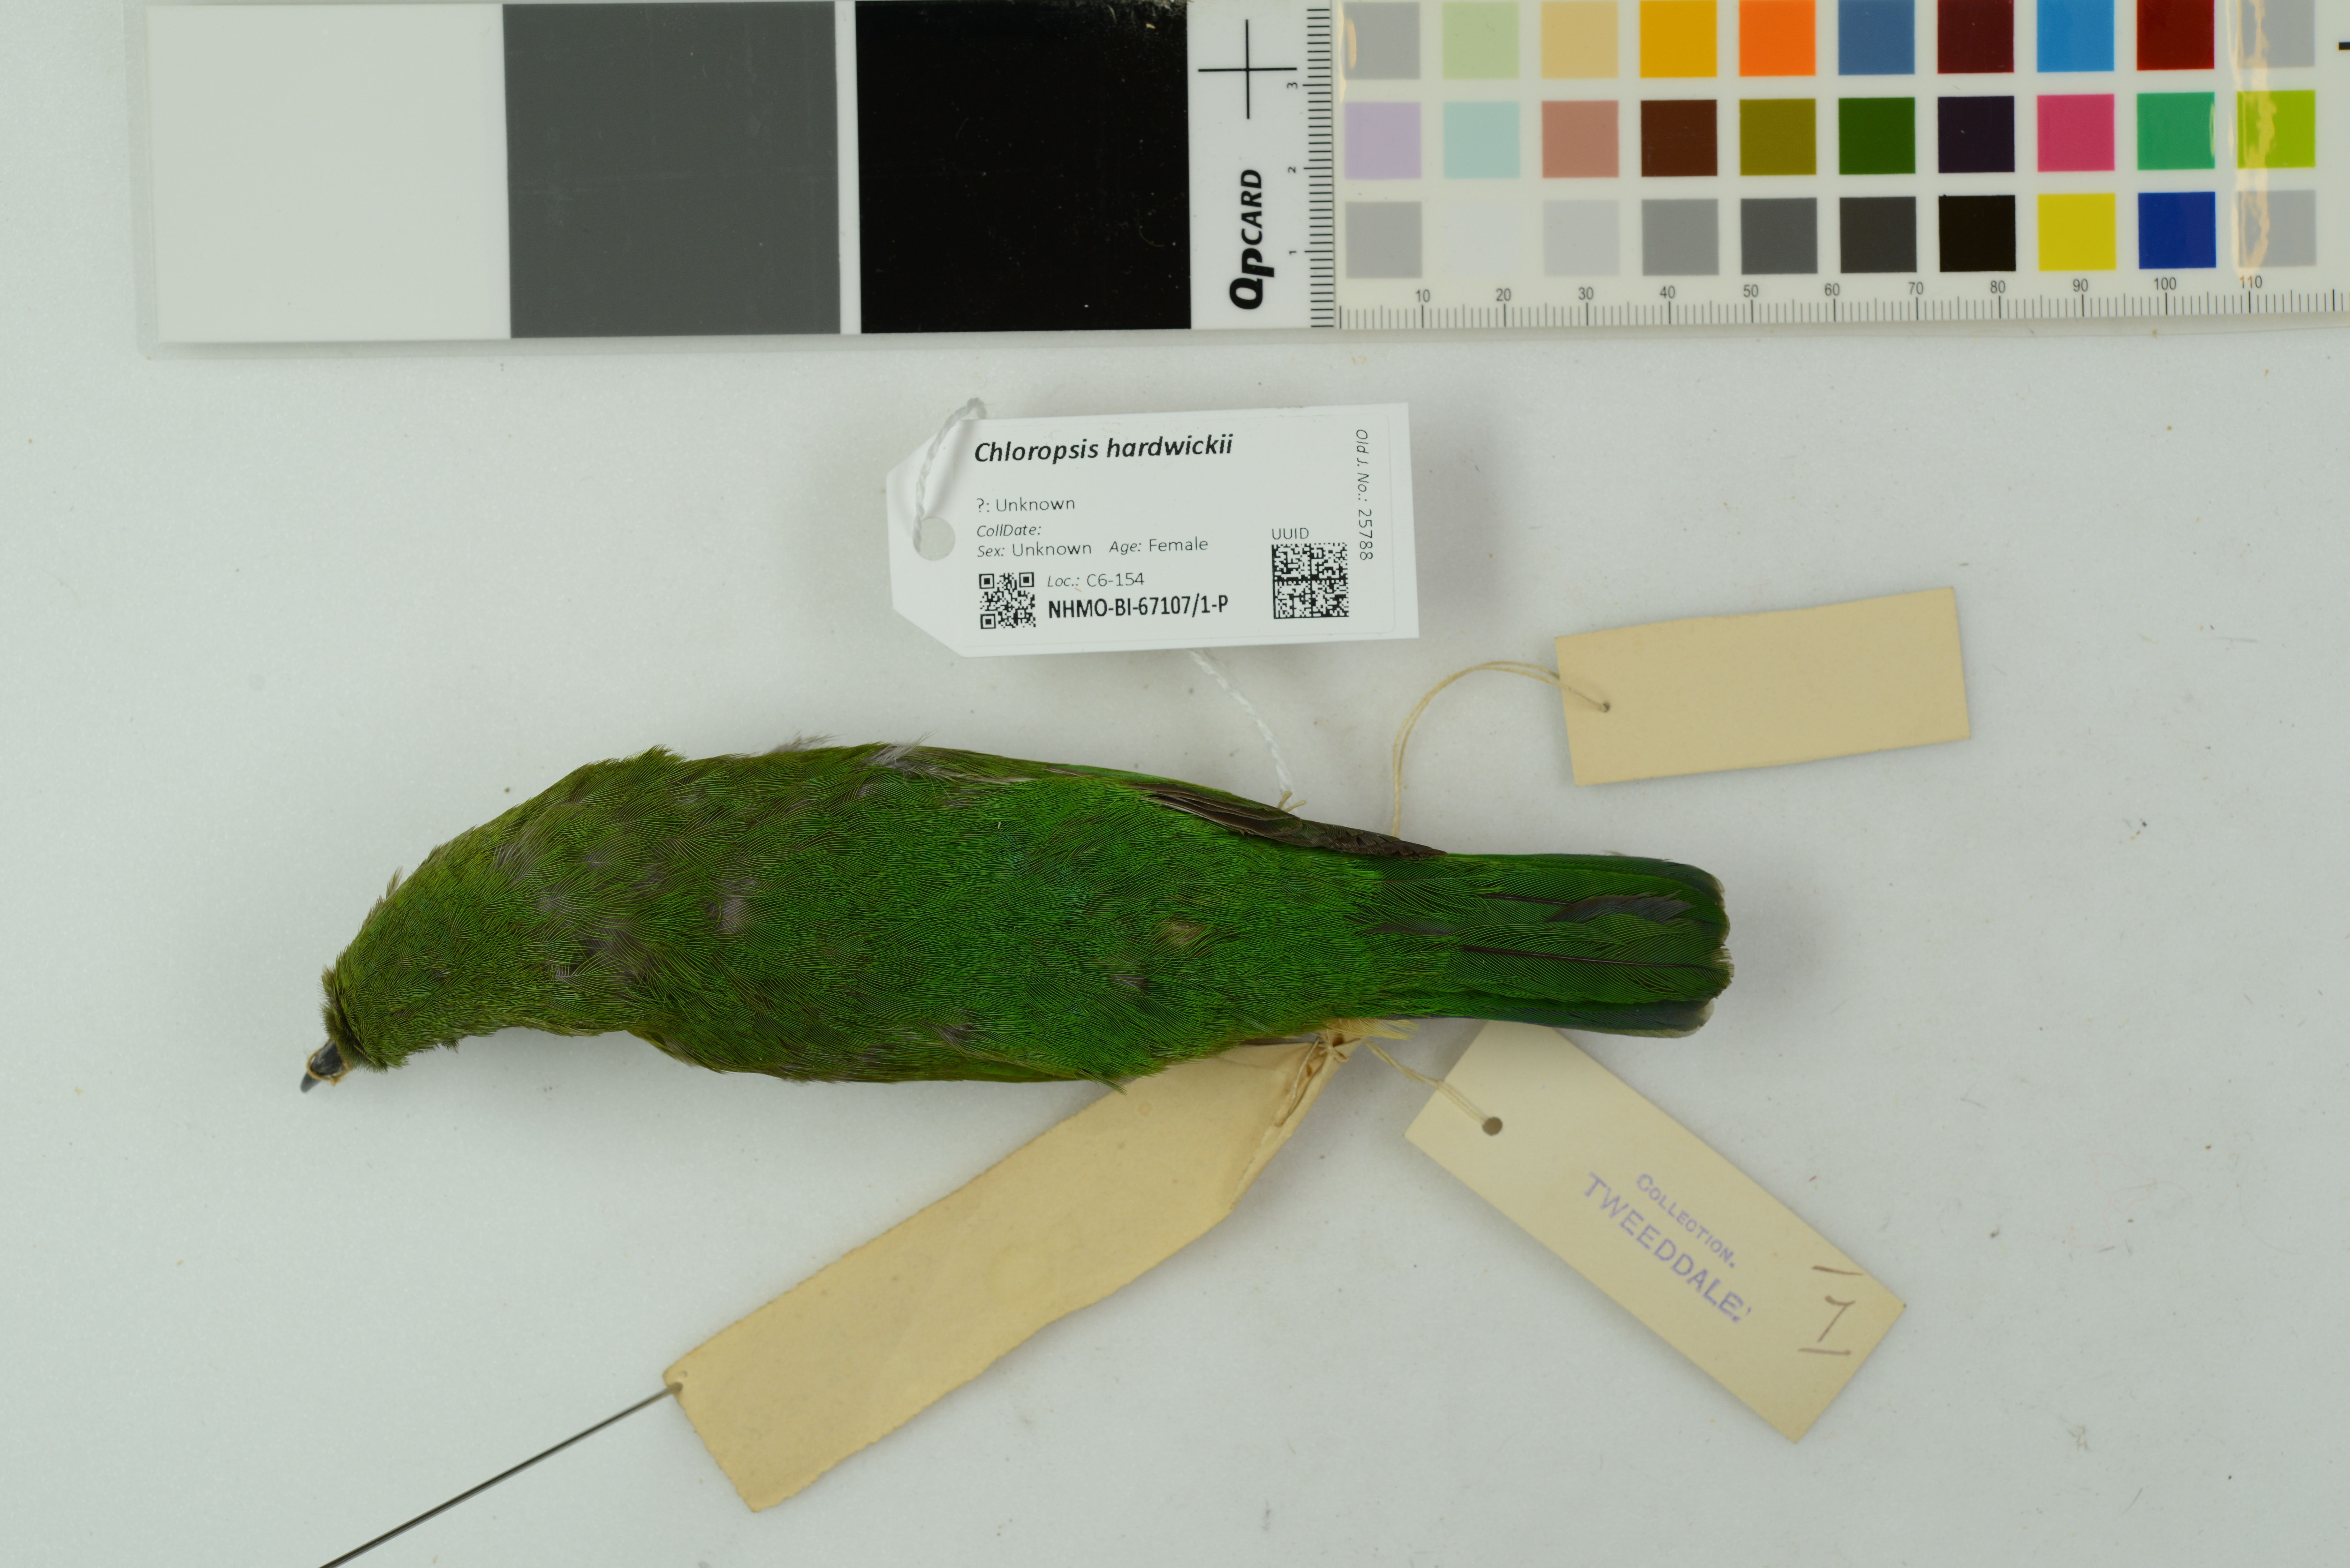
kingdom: Animalia
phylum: Chordata
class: Aves
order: Passeriformes
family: Chloropseidae
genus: Chloropsis
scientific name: Chloropsis hardwickii
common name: Orange-bellied leafbird
